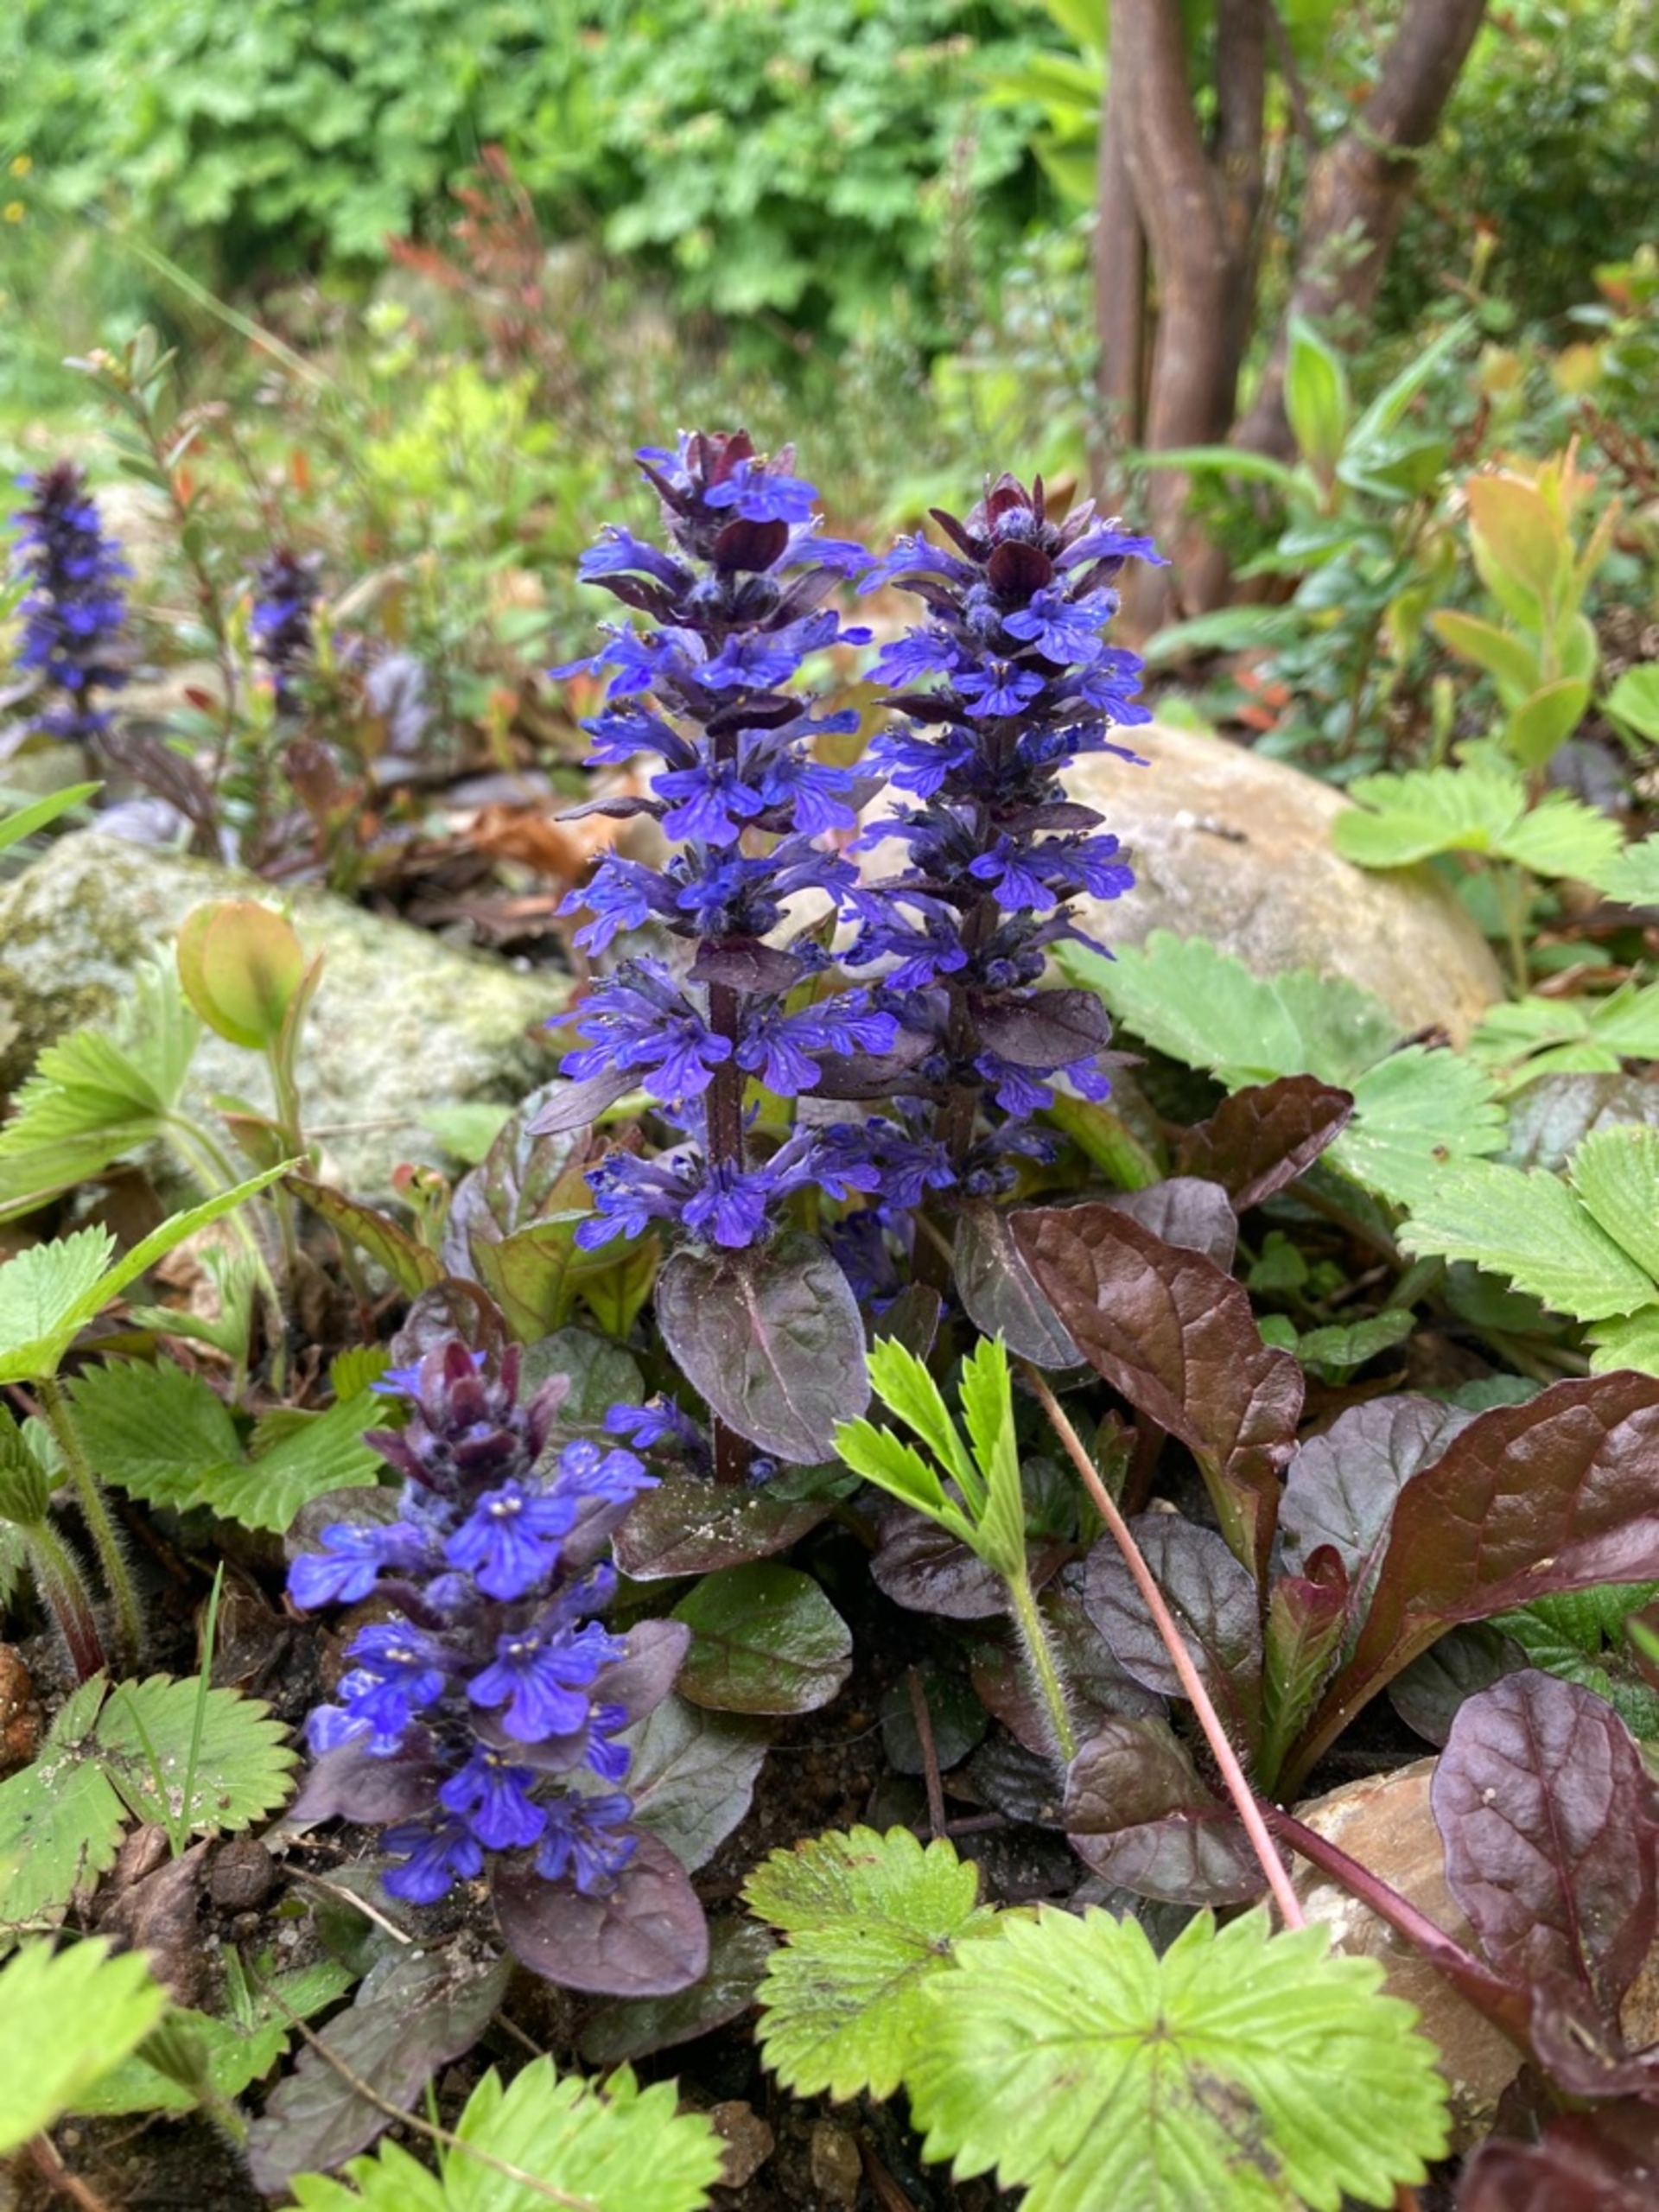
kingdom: Plantae
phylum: Tracheophyta
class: Magnoliopsida
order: Lamiales
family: Lamiaceae
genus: Ajuga
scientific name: Ajuga reptans
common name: Krybende læbeløs
